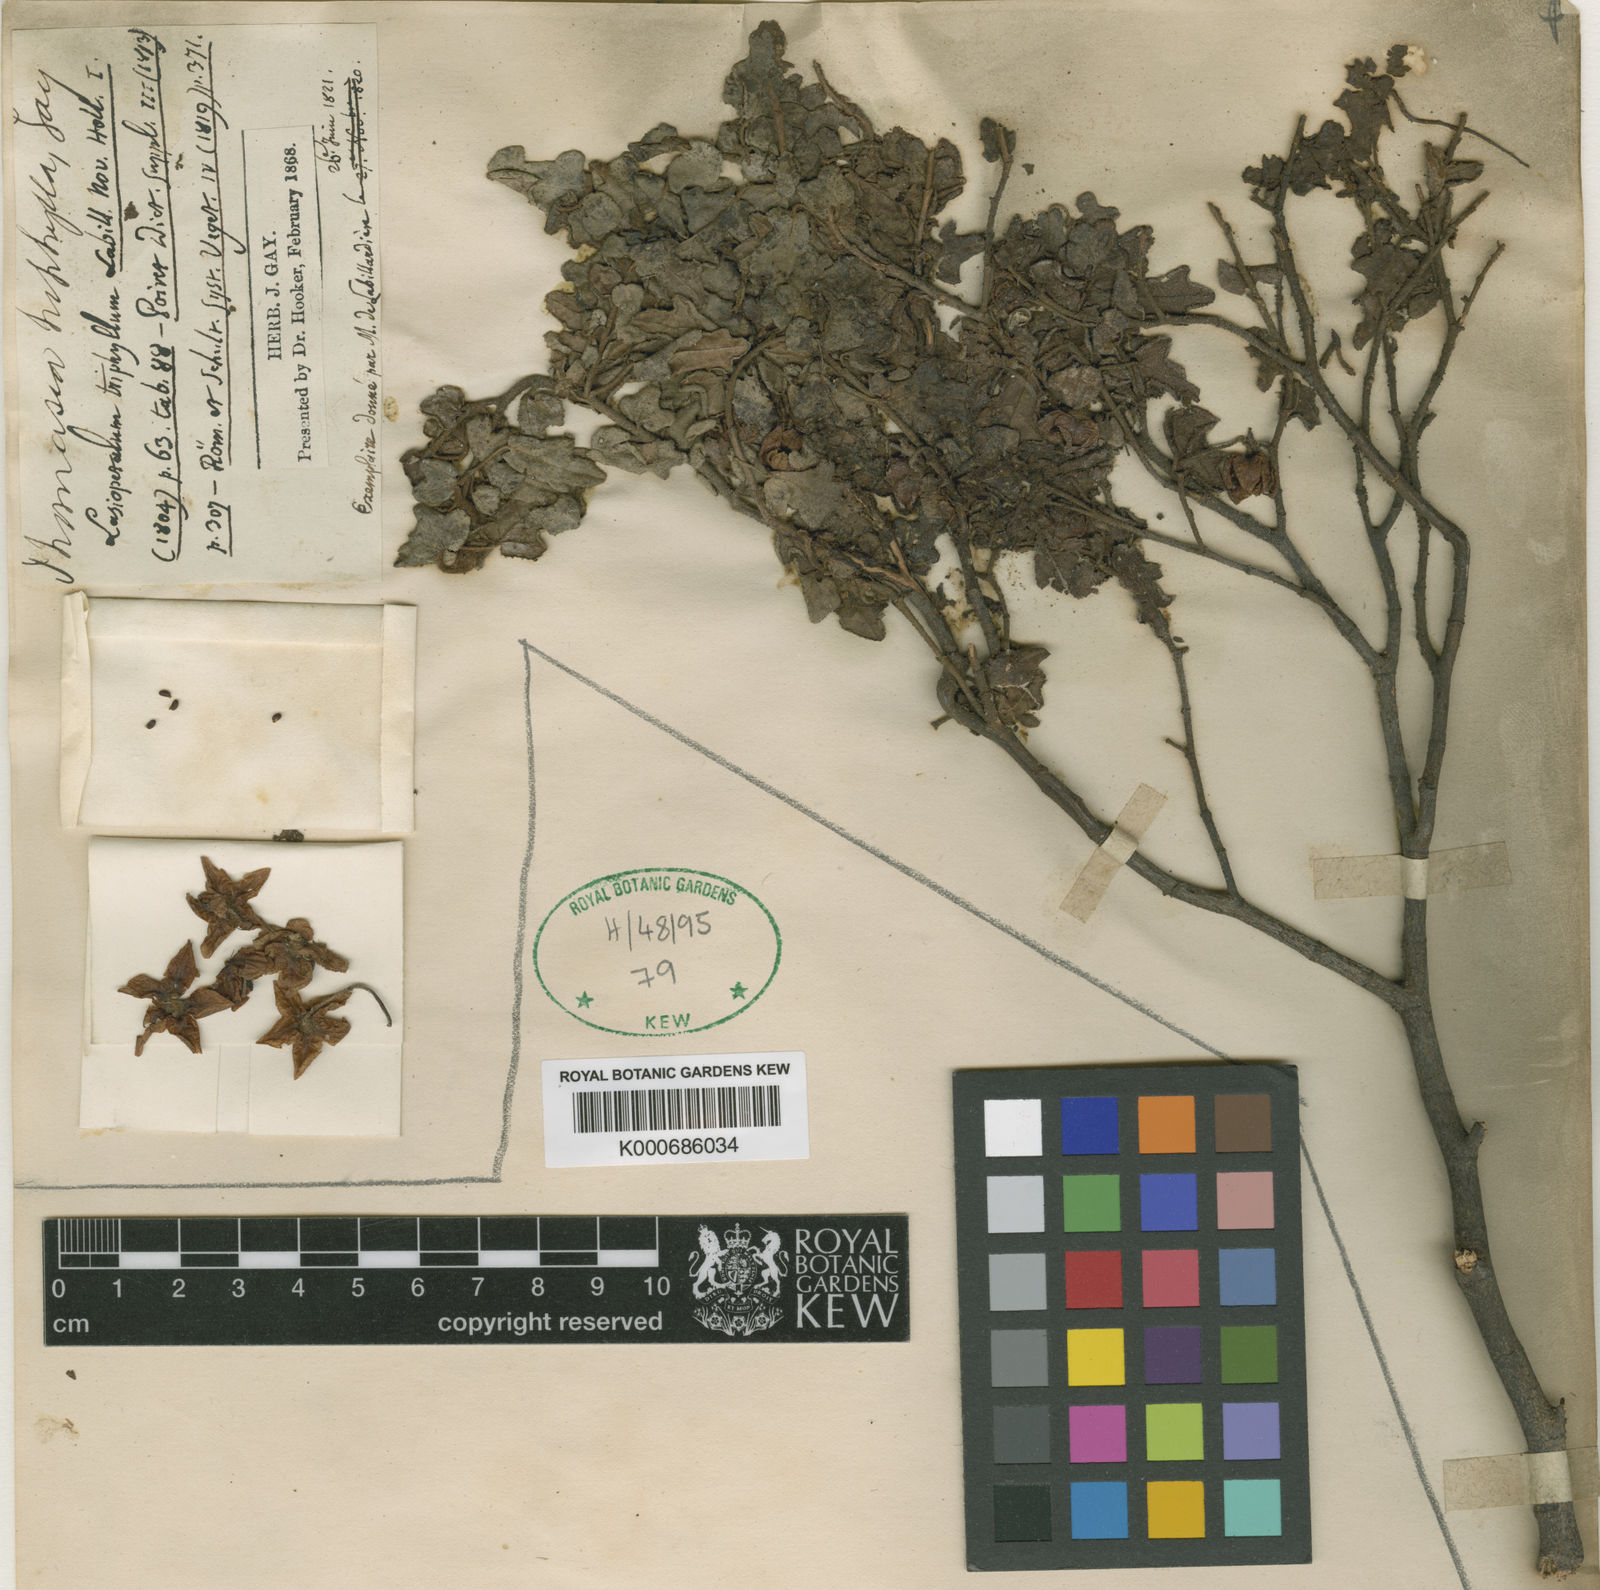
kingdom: Plantae
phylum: Tracheophyta
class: Magnoliopsida
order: Malvales
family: Malvaceae
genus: Thomasia
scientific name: Thomasia triphylla
